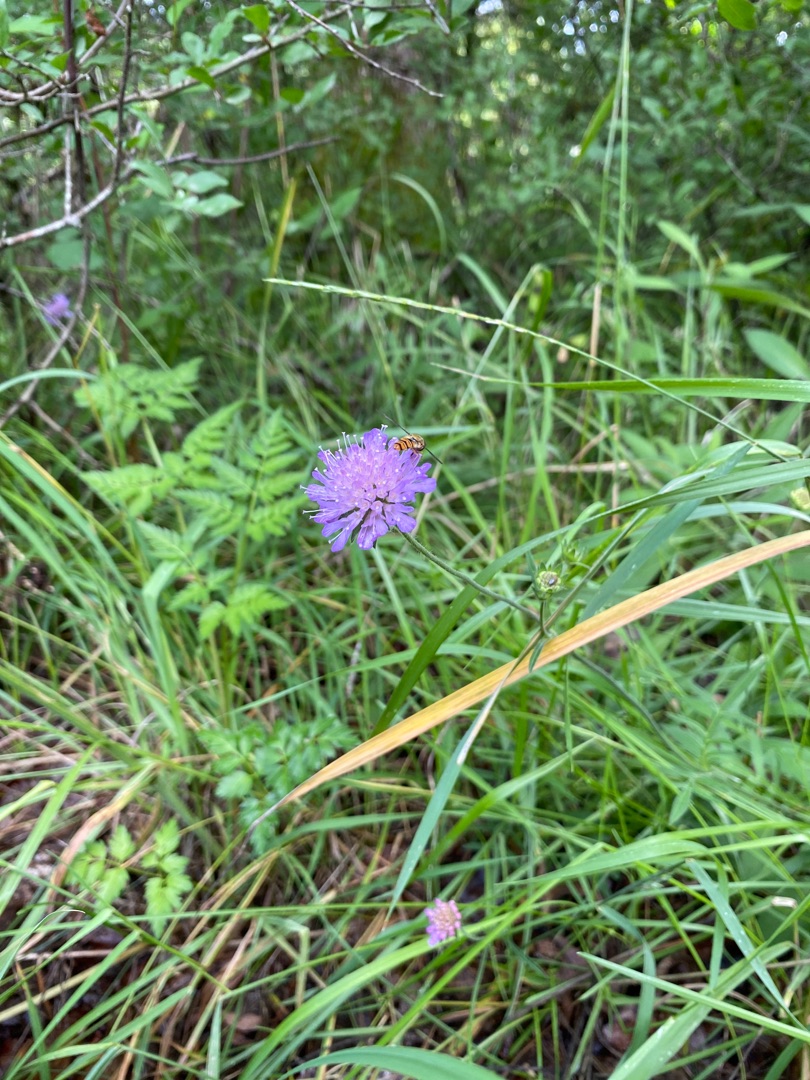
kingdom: Plantae
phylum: Tracheophyta
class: Magnoliopsida
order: Dipsacales
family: Caprifoliaceae
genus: Knautia
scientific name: Knautia arvensis
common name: Blåhat
